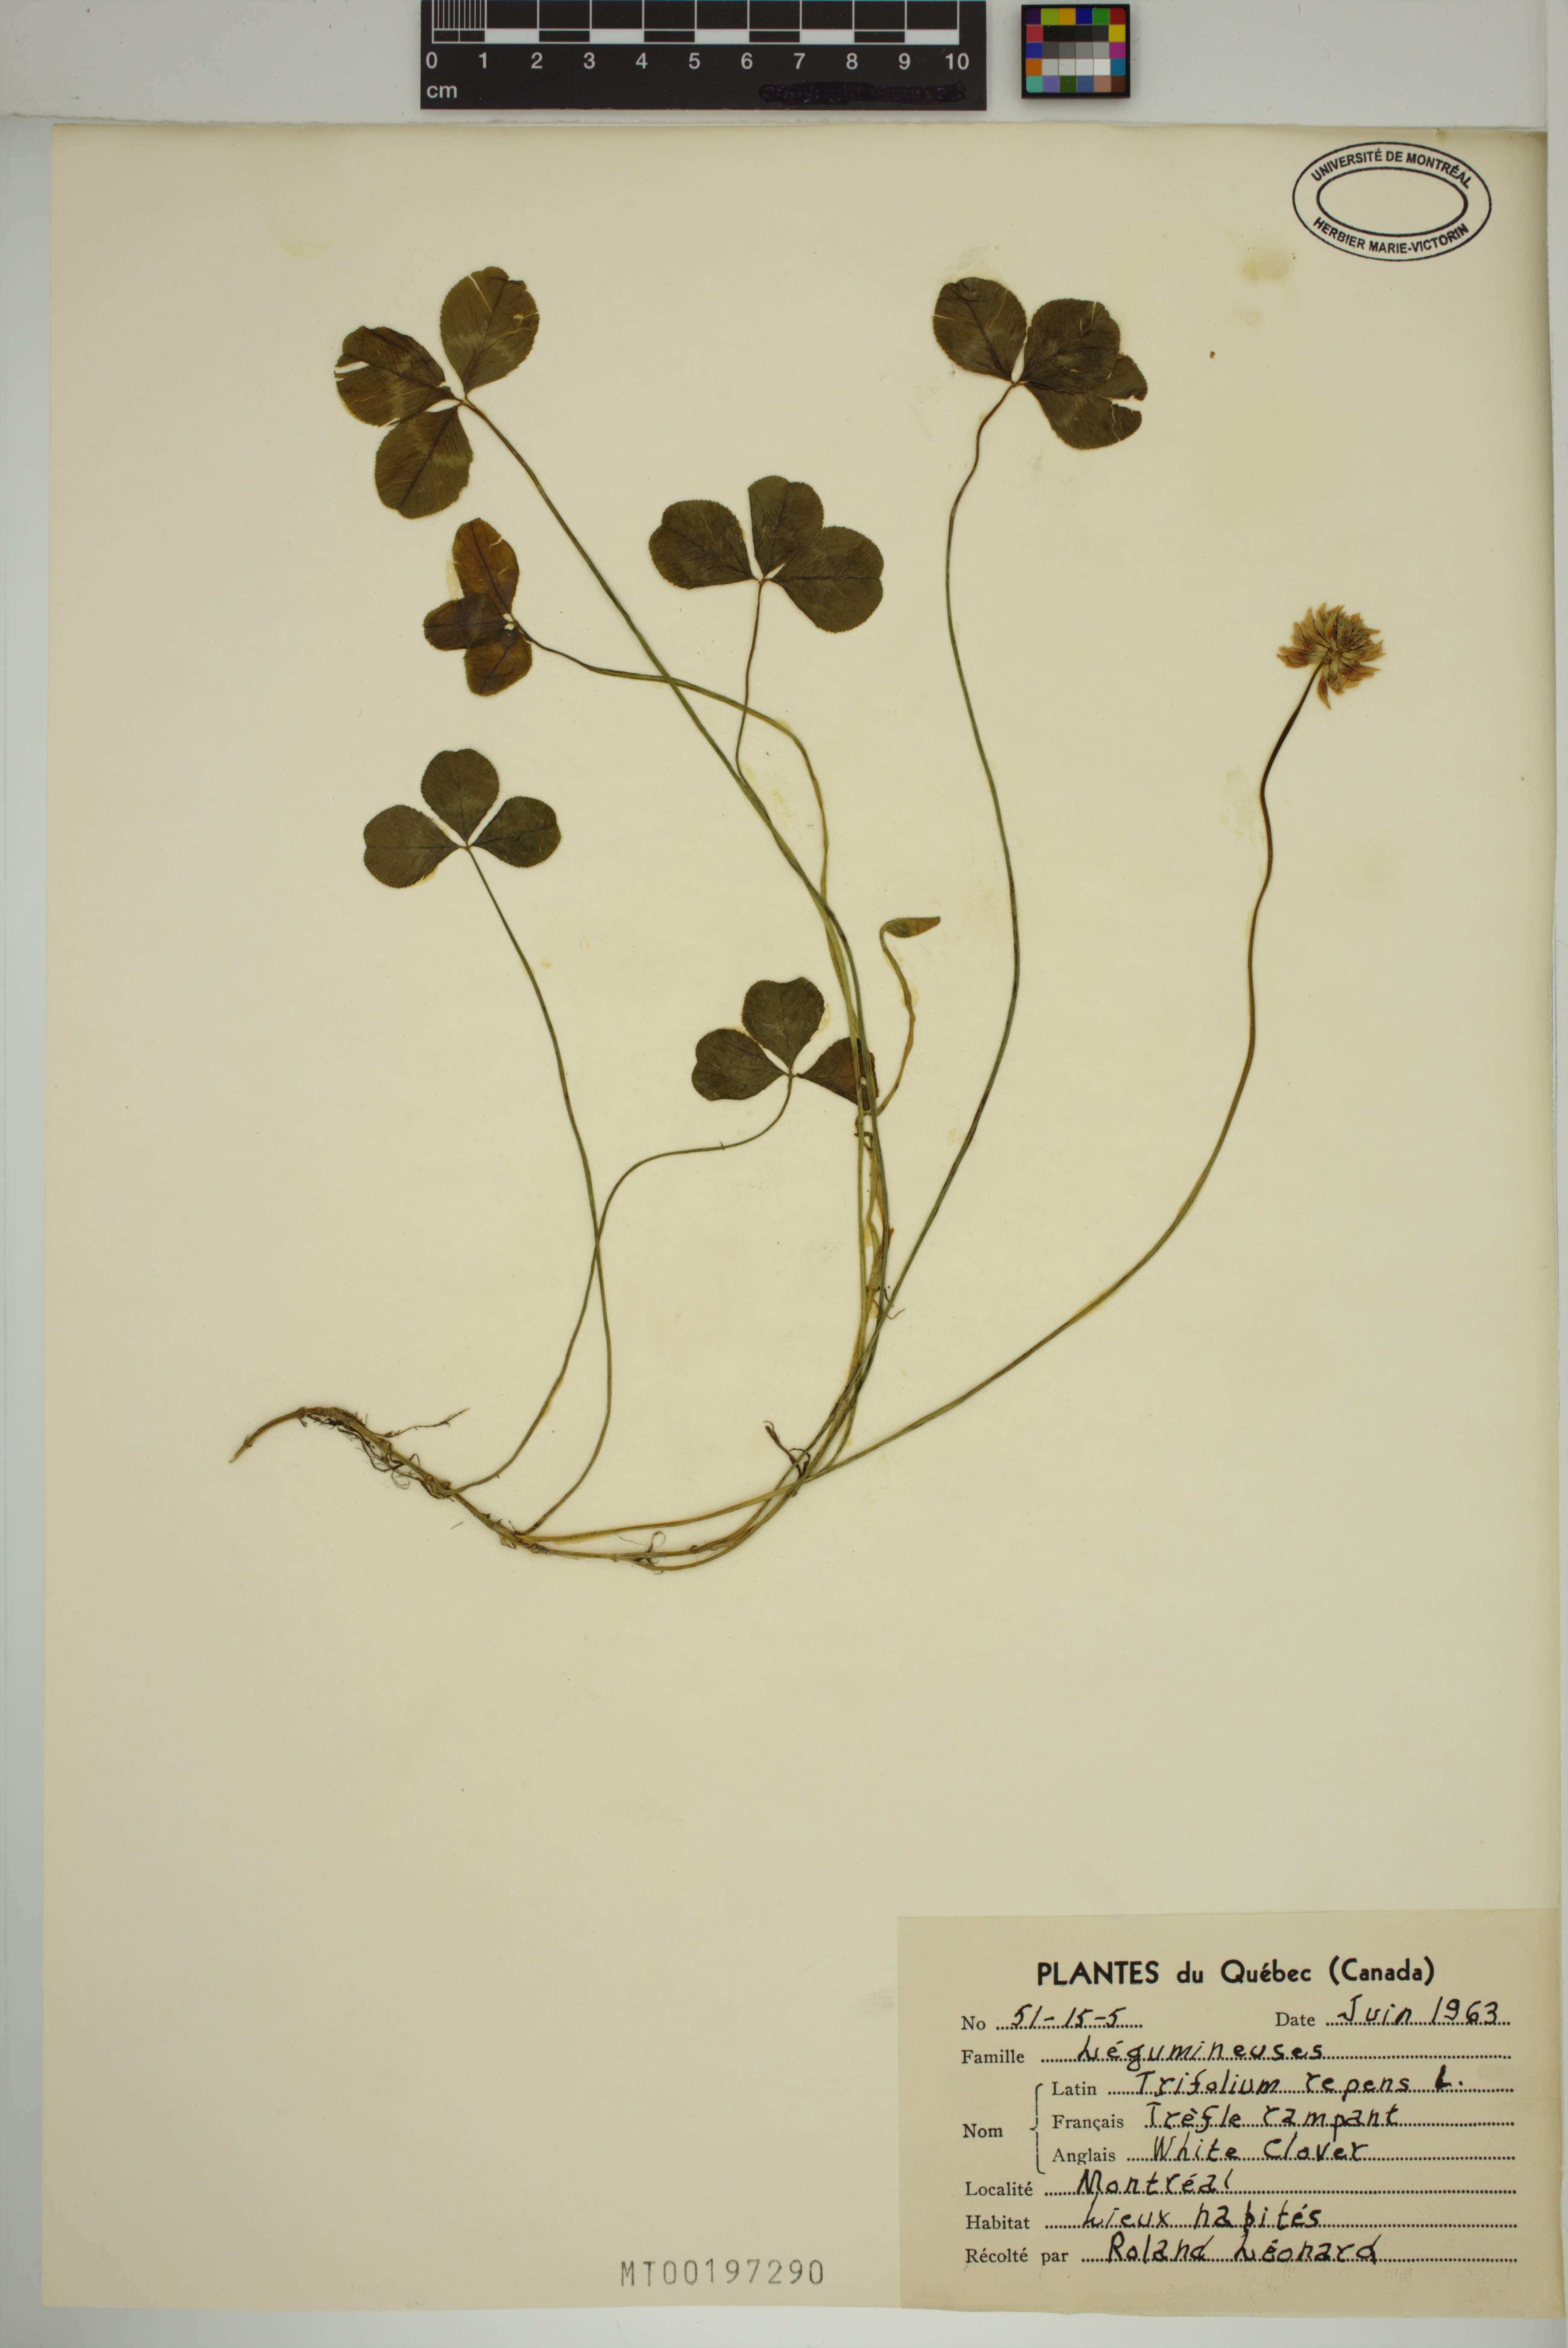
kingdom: Plantae
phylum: Tracheophyta
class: Magnoliopsida
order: Fabales
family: Fabaceae
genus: Trifolium
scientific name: Trifolium repens
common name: White clover
